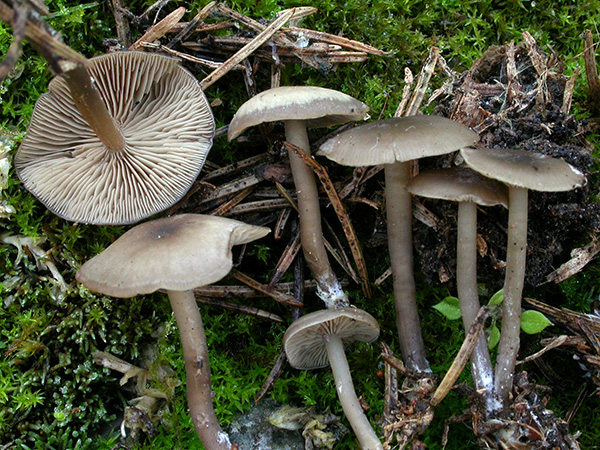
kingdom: Fungi
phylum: Basidiomycota
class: Agaricomycetes
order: Agaricales
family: Lyophyllaceae
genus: Tephrocybe
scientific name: Tephrocybe osmophora
